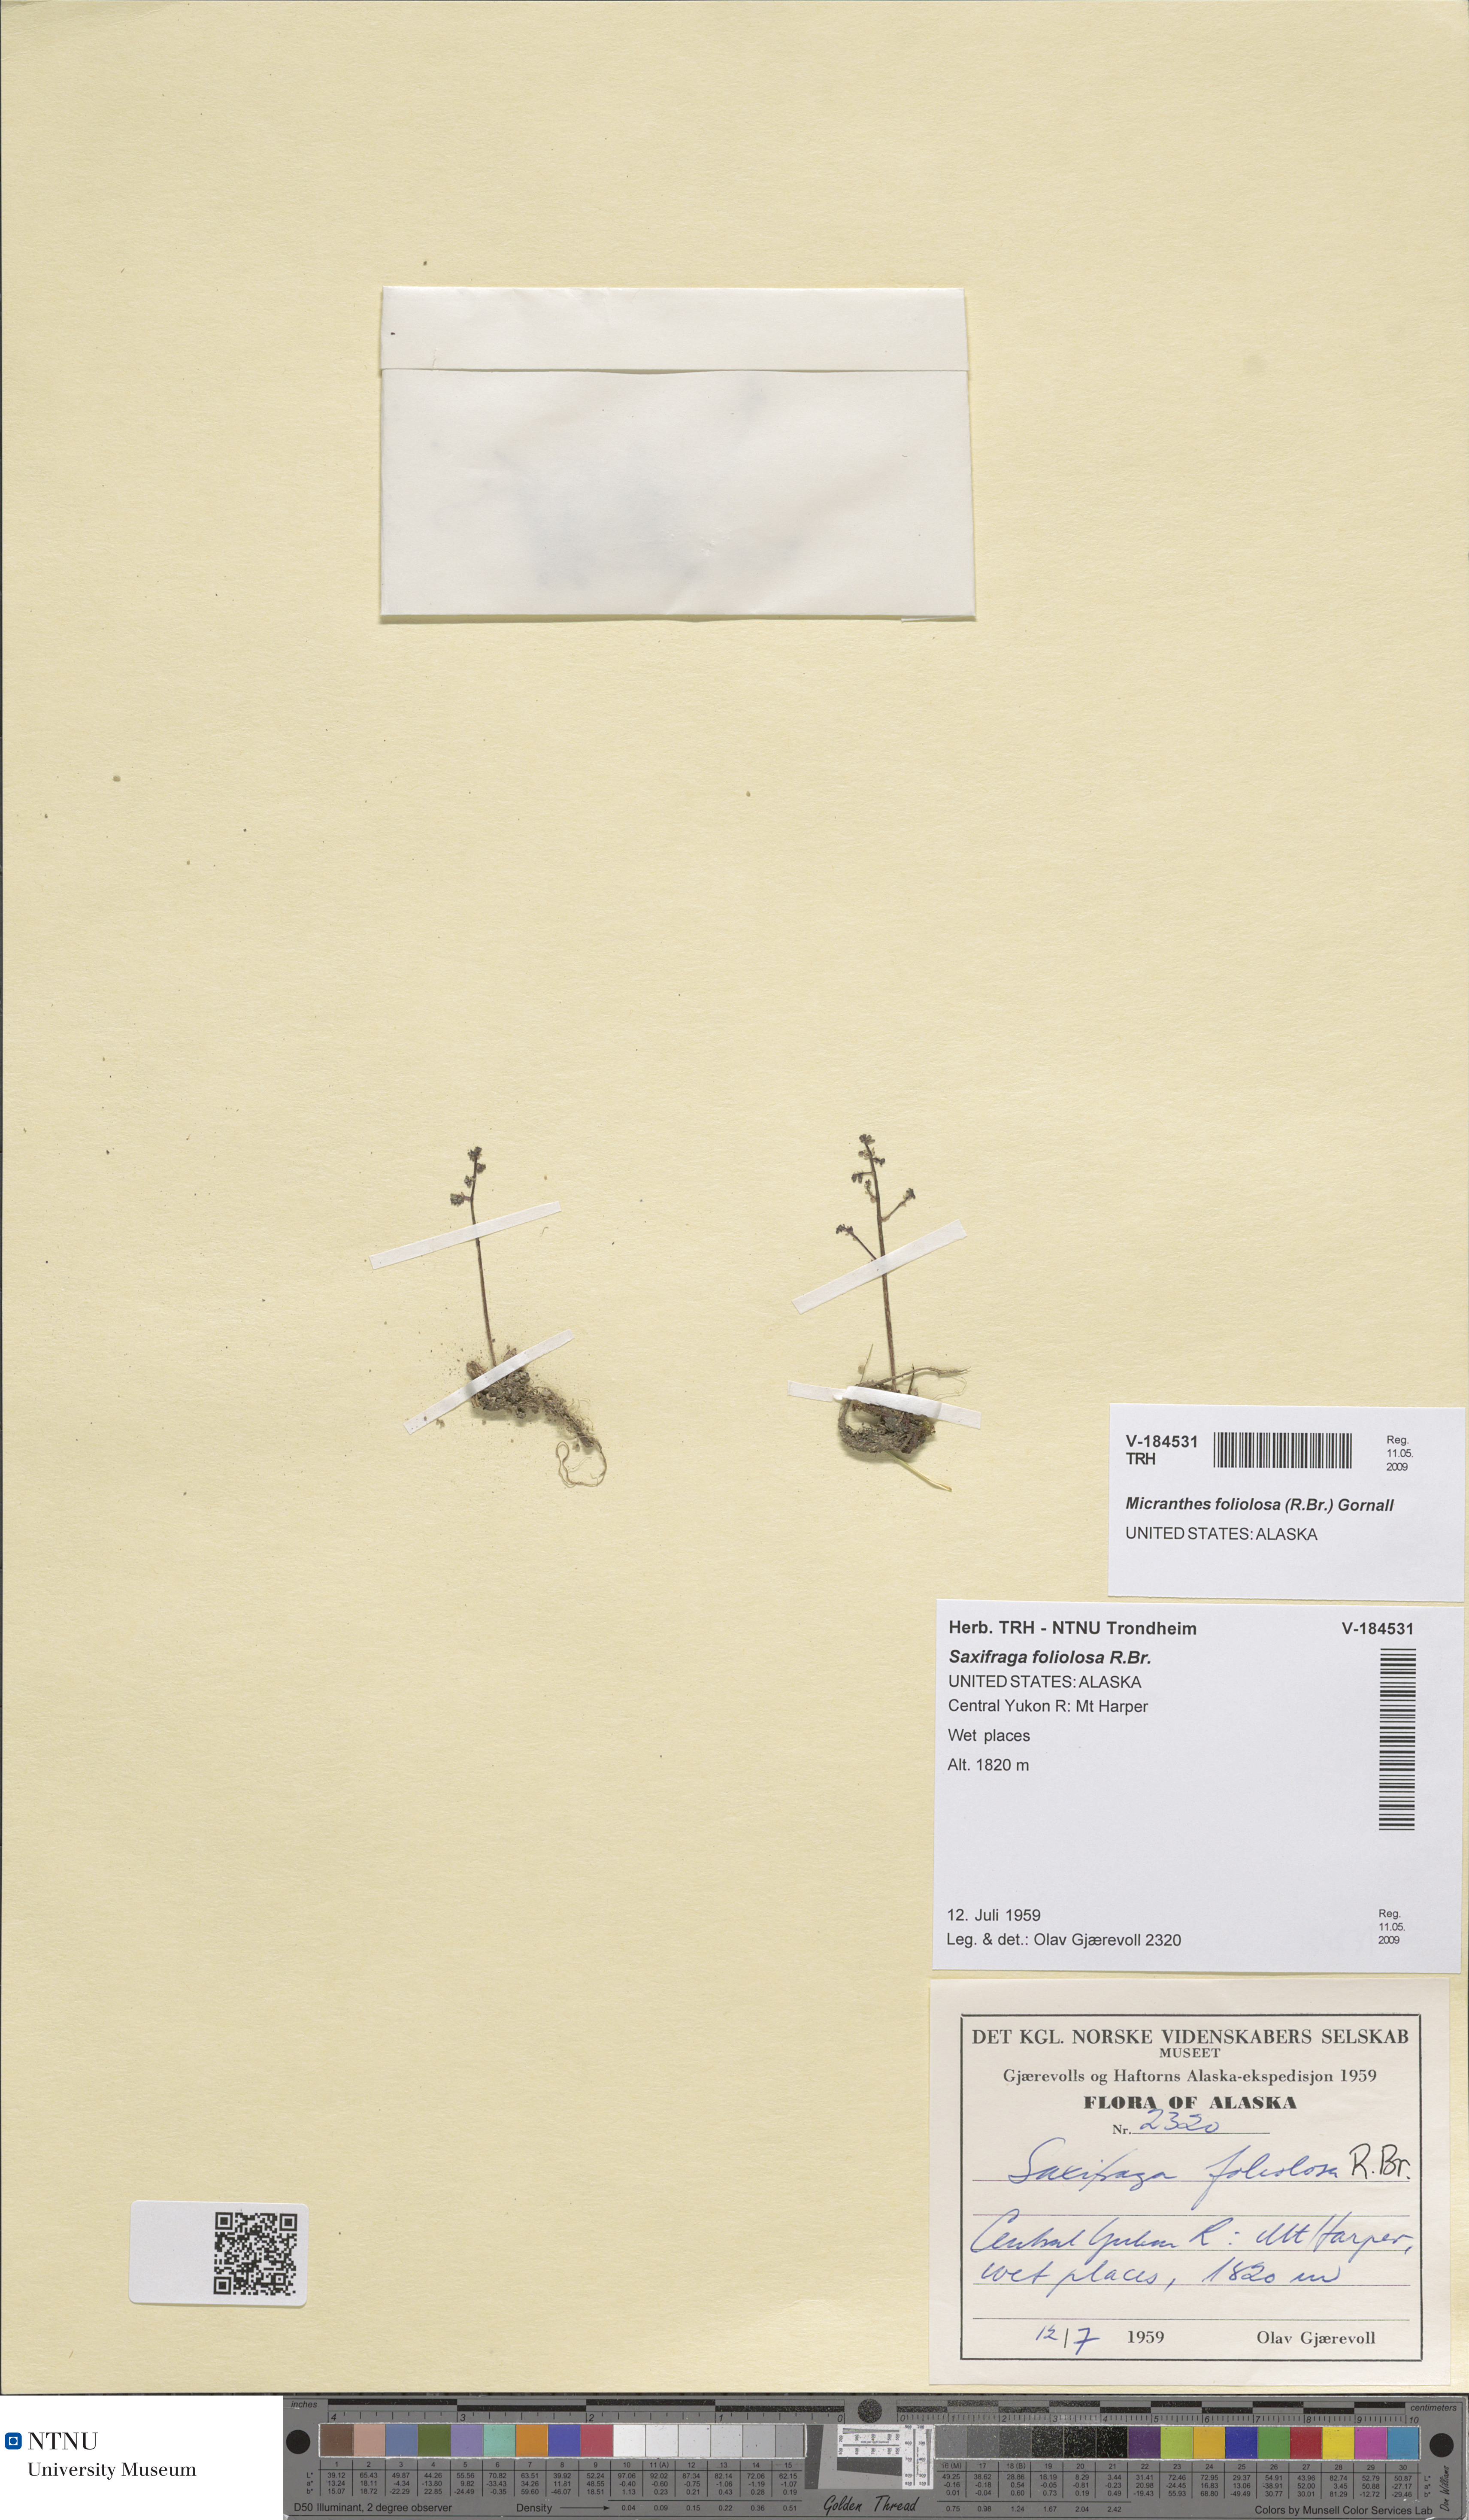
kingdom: Plantae
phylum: Tracheophyta
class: Magnoliopsida
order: Saxifragales
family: Saxifragaceae
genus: Micranthes
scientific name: Micranthes foliolosa
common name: Leafystem saxifrage
